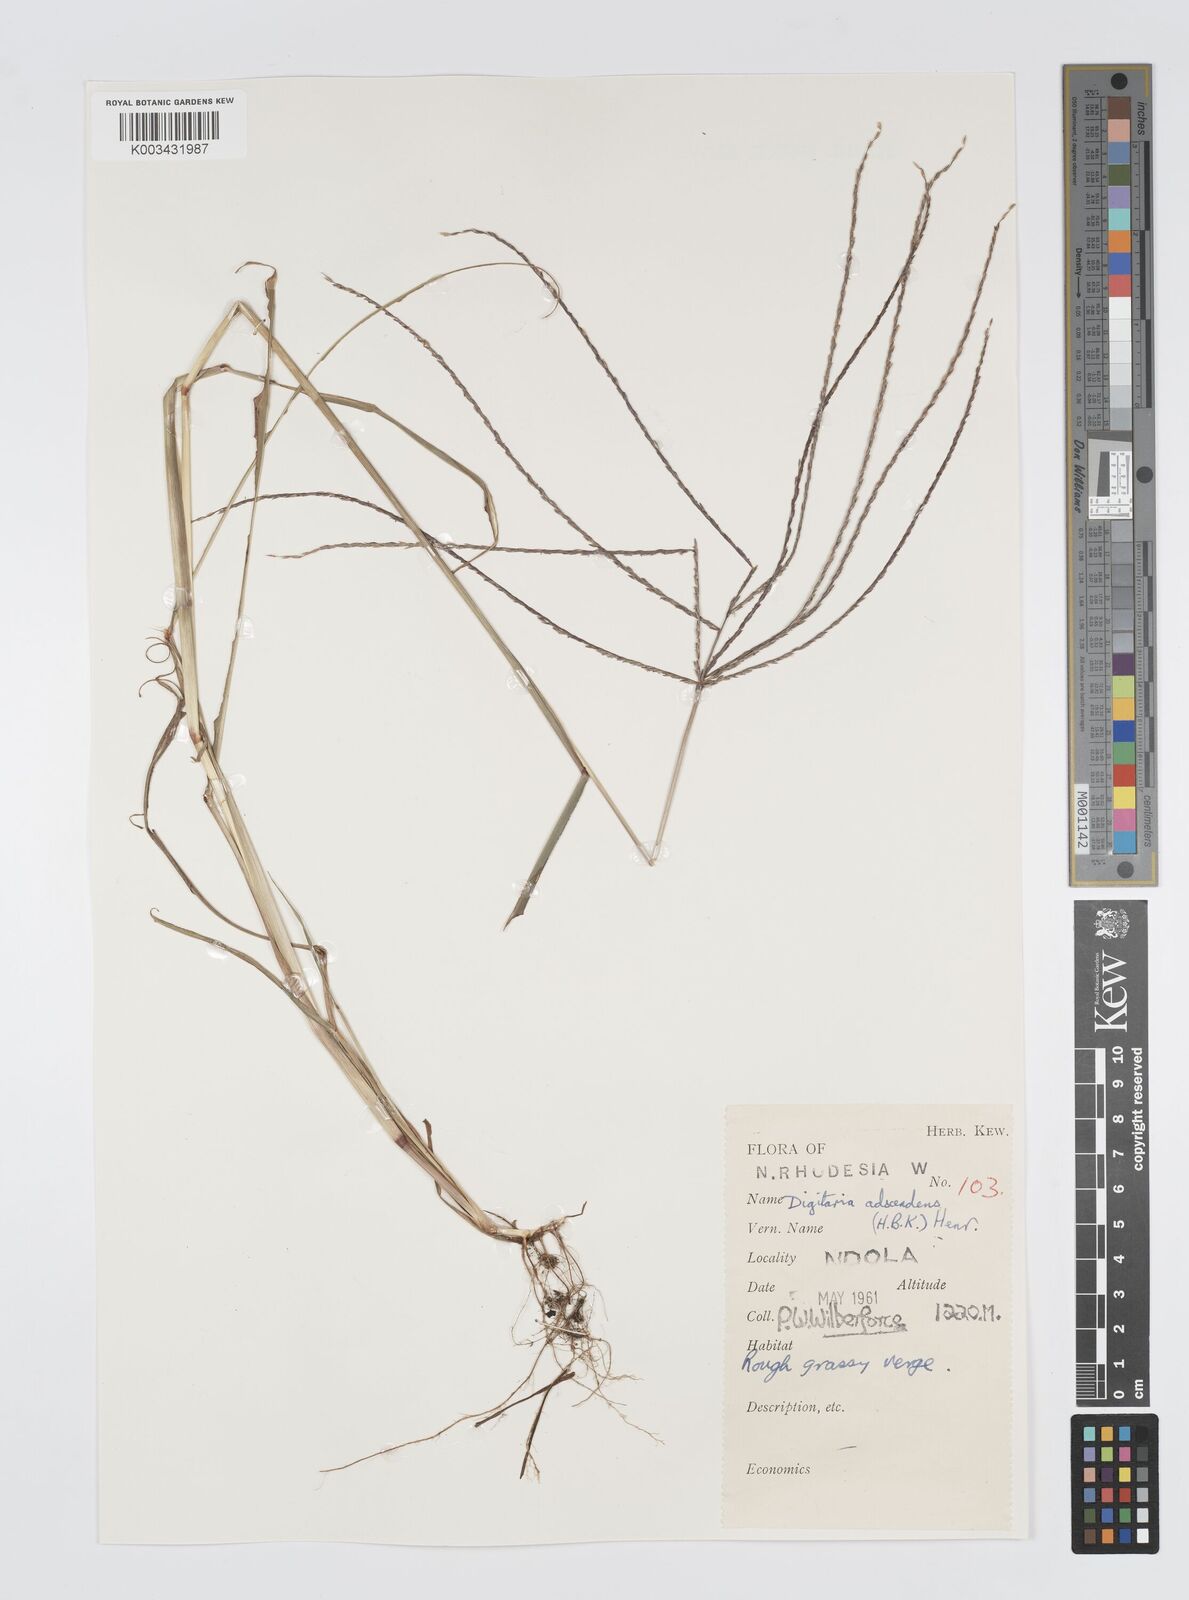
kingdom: Plantae
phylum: Tracheophyta
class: Liliopsida
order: Poales
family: Poaceae
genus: Digitaria
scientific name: Digitaria milanjiana
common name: Madagascar crabgrass
